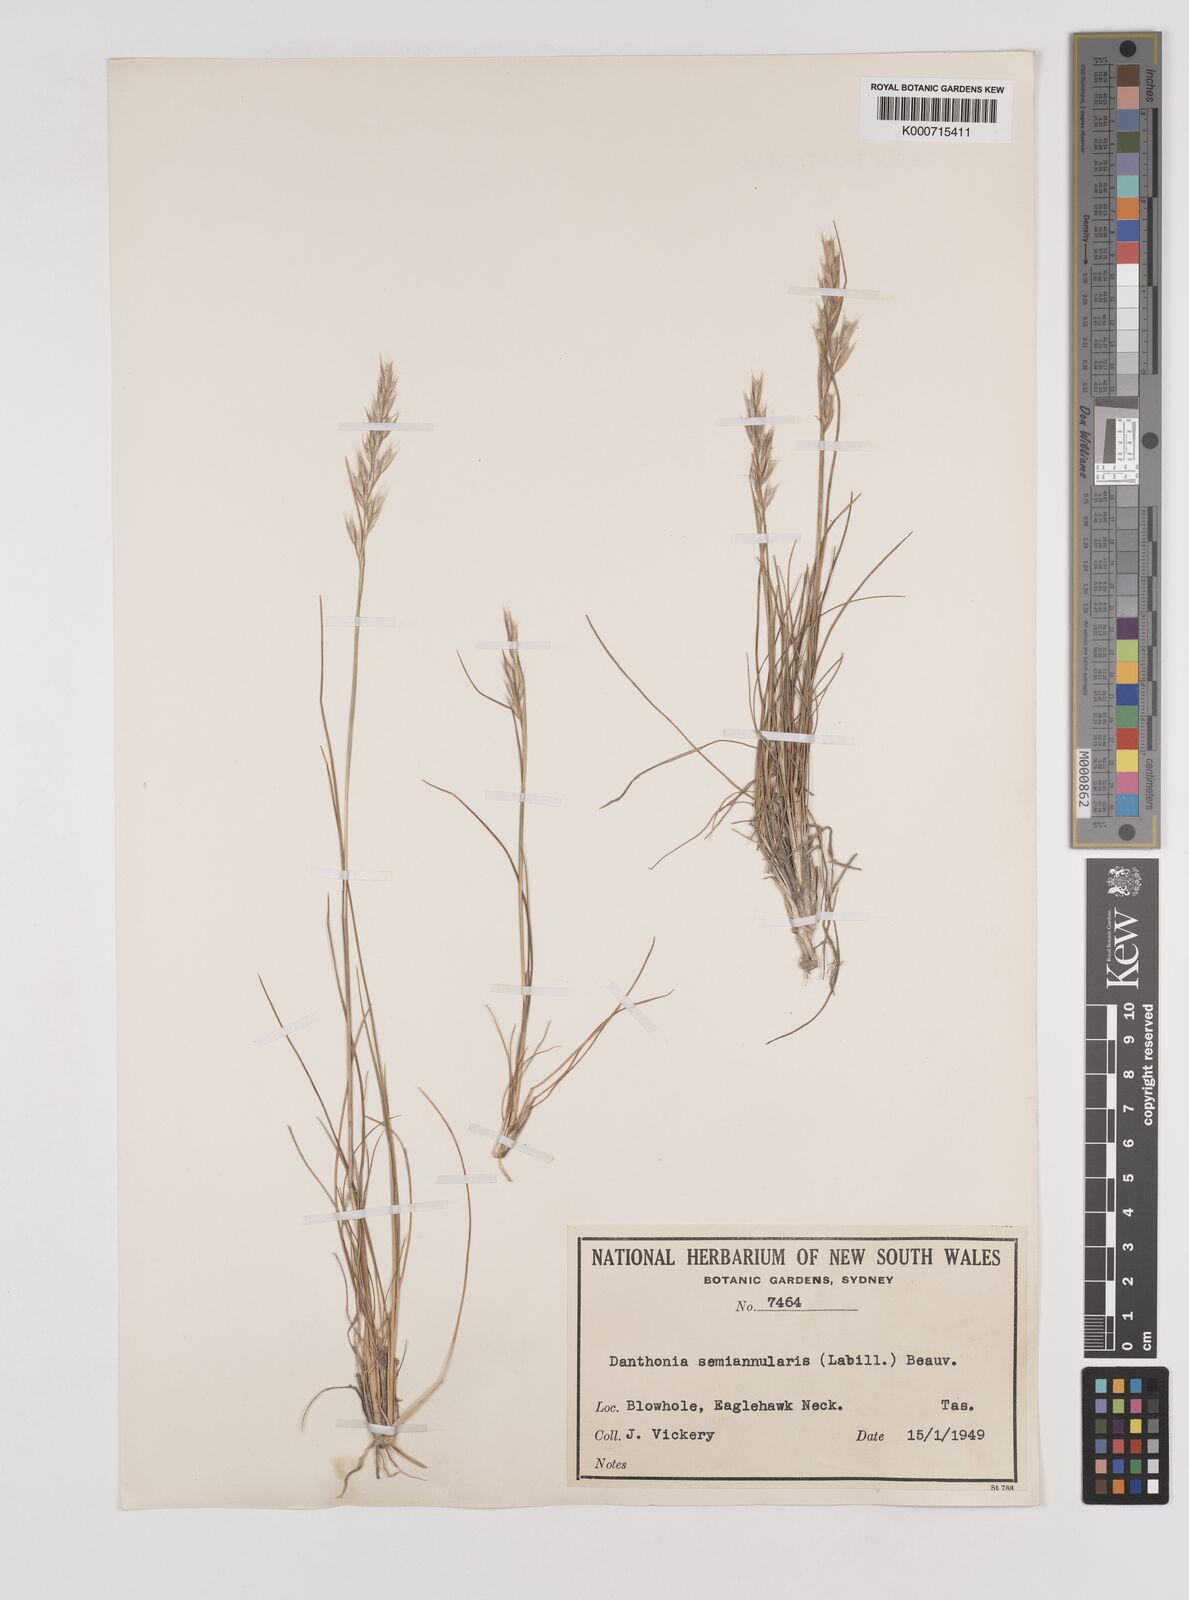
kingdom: Plantae
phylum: Tracheophyta
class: Liliopsida
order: Poales
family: Poaceae
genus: Rytidosperma
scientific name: Rytidosperma semiannulare
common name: Tasmanian wallaby grass
